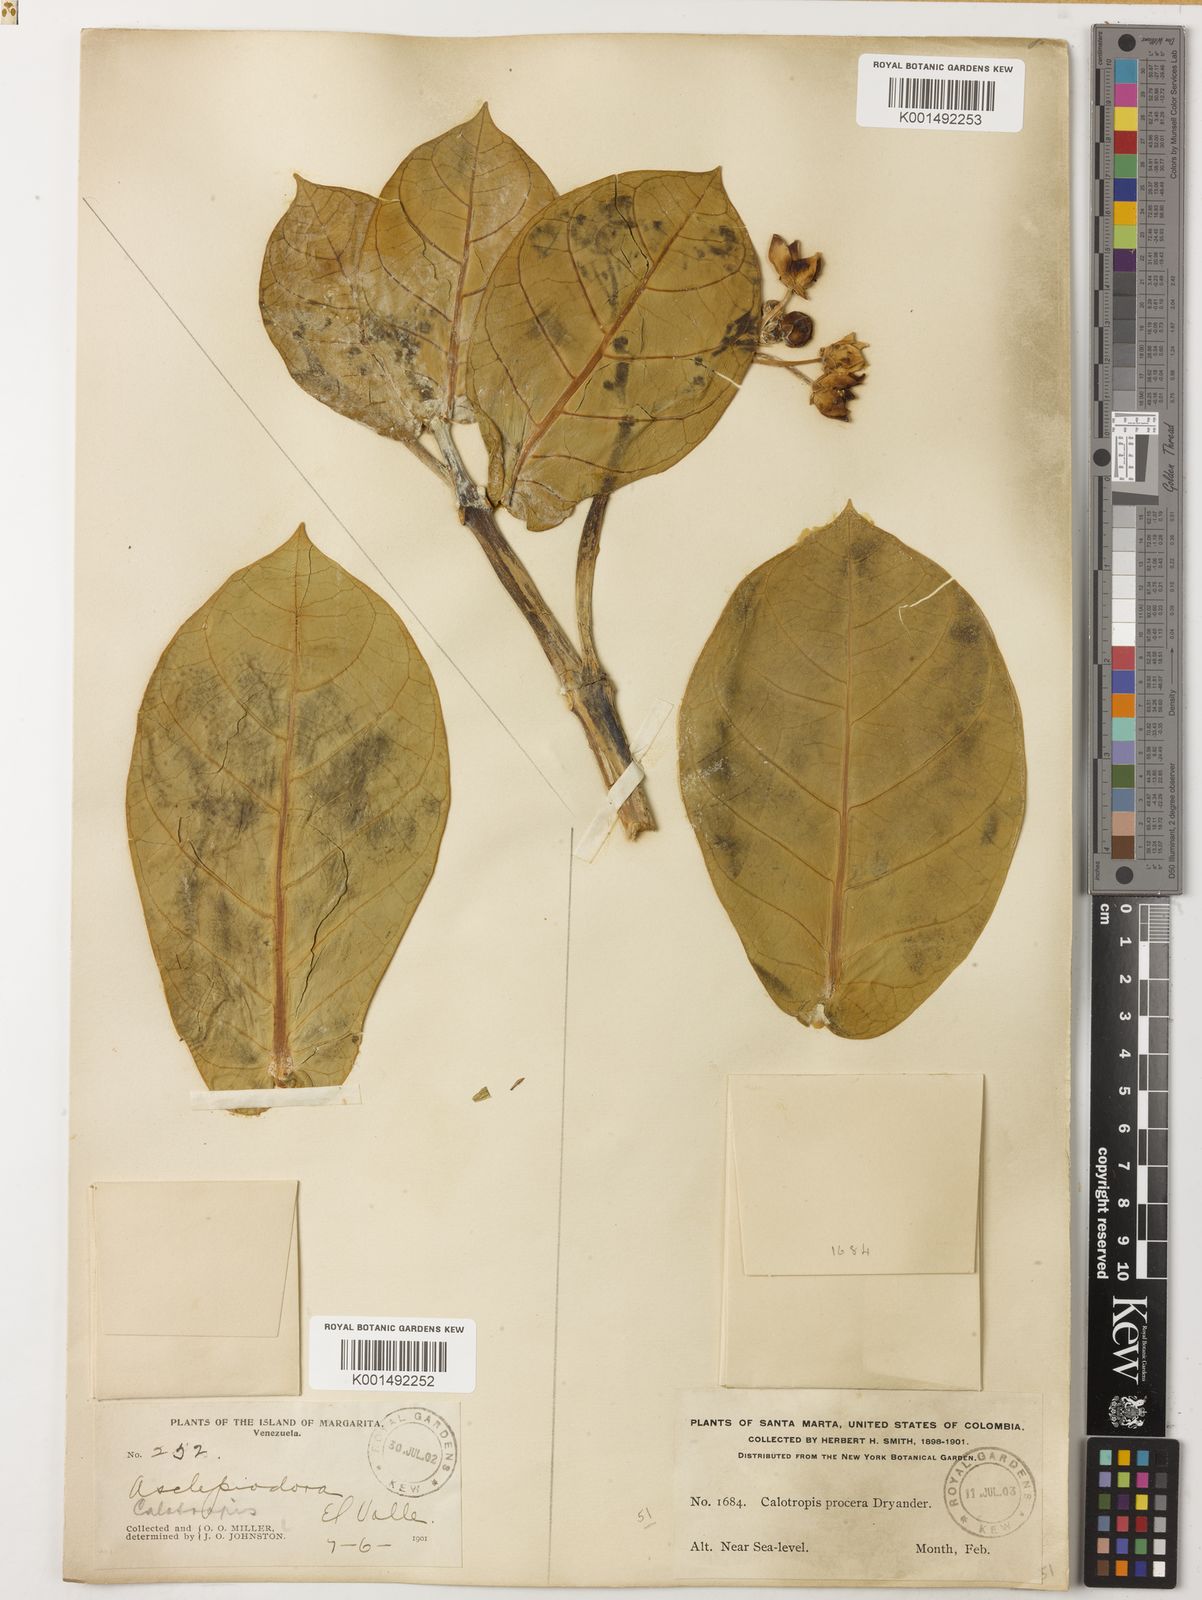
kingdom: Plantae
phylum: Tracheophyta
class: Magnoliopsida
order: Gentianales
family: Apocynaceae
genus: Calotropis
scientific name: Calotropis procera
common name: Roostertree
